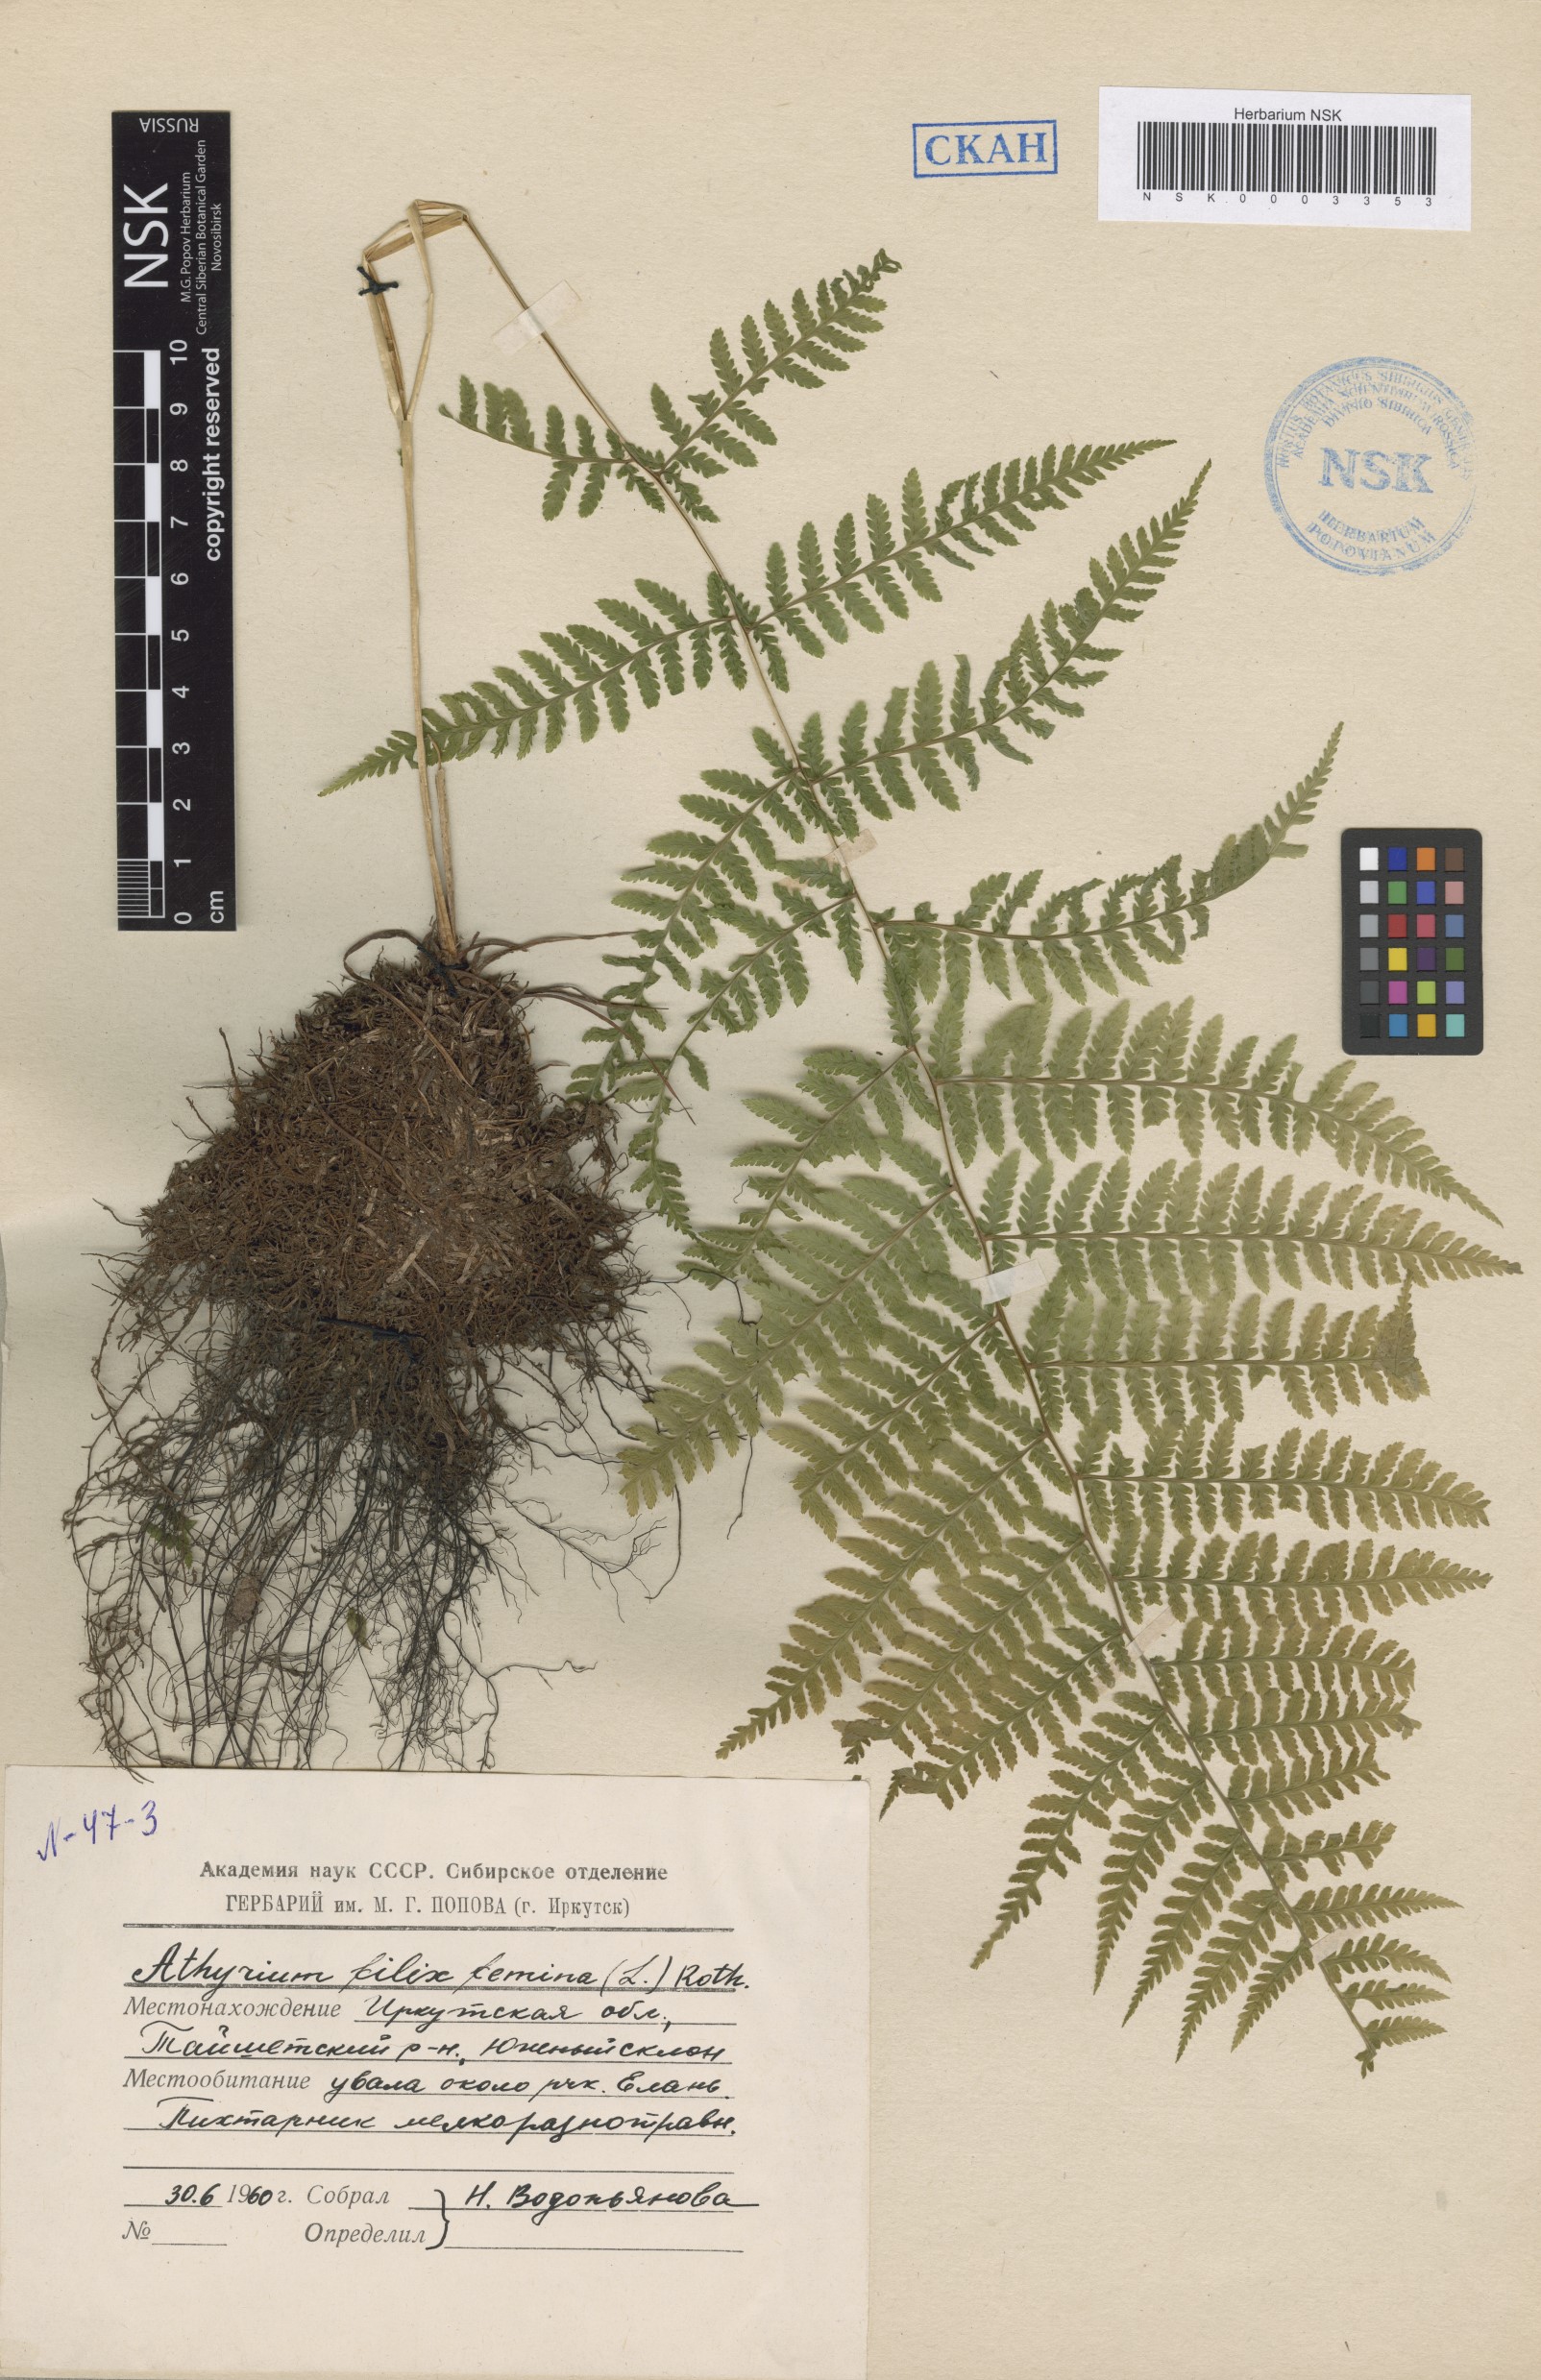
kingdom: Plantae
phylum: Tracheophyta
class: Polypodiopsida
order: Polypodiales
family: Athyriaceae
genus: Athyrium
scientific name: Athyrium filix-femina
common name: Lady fern
